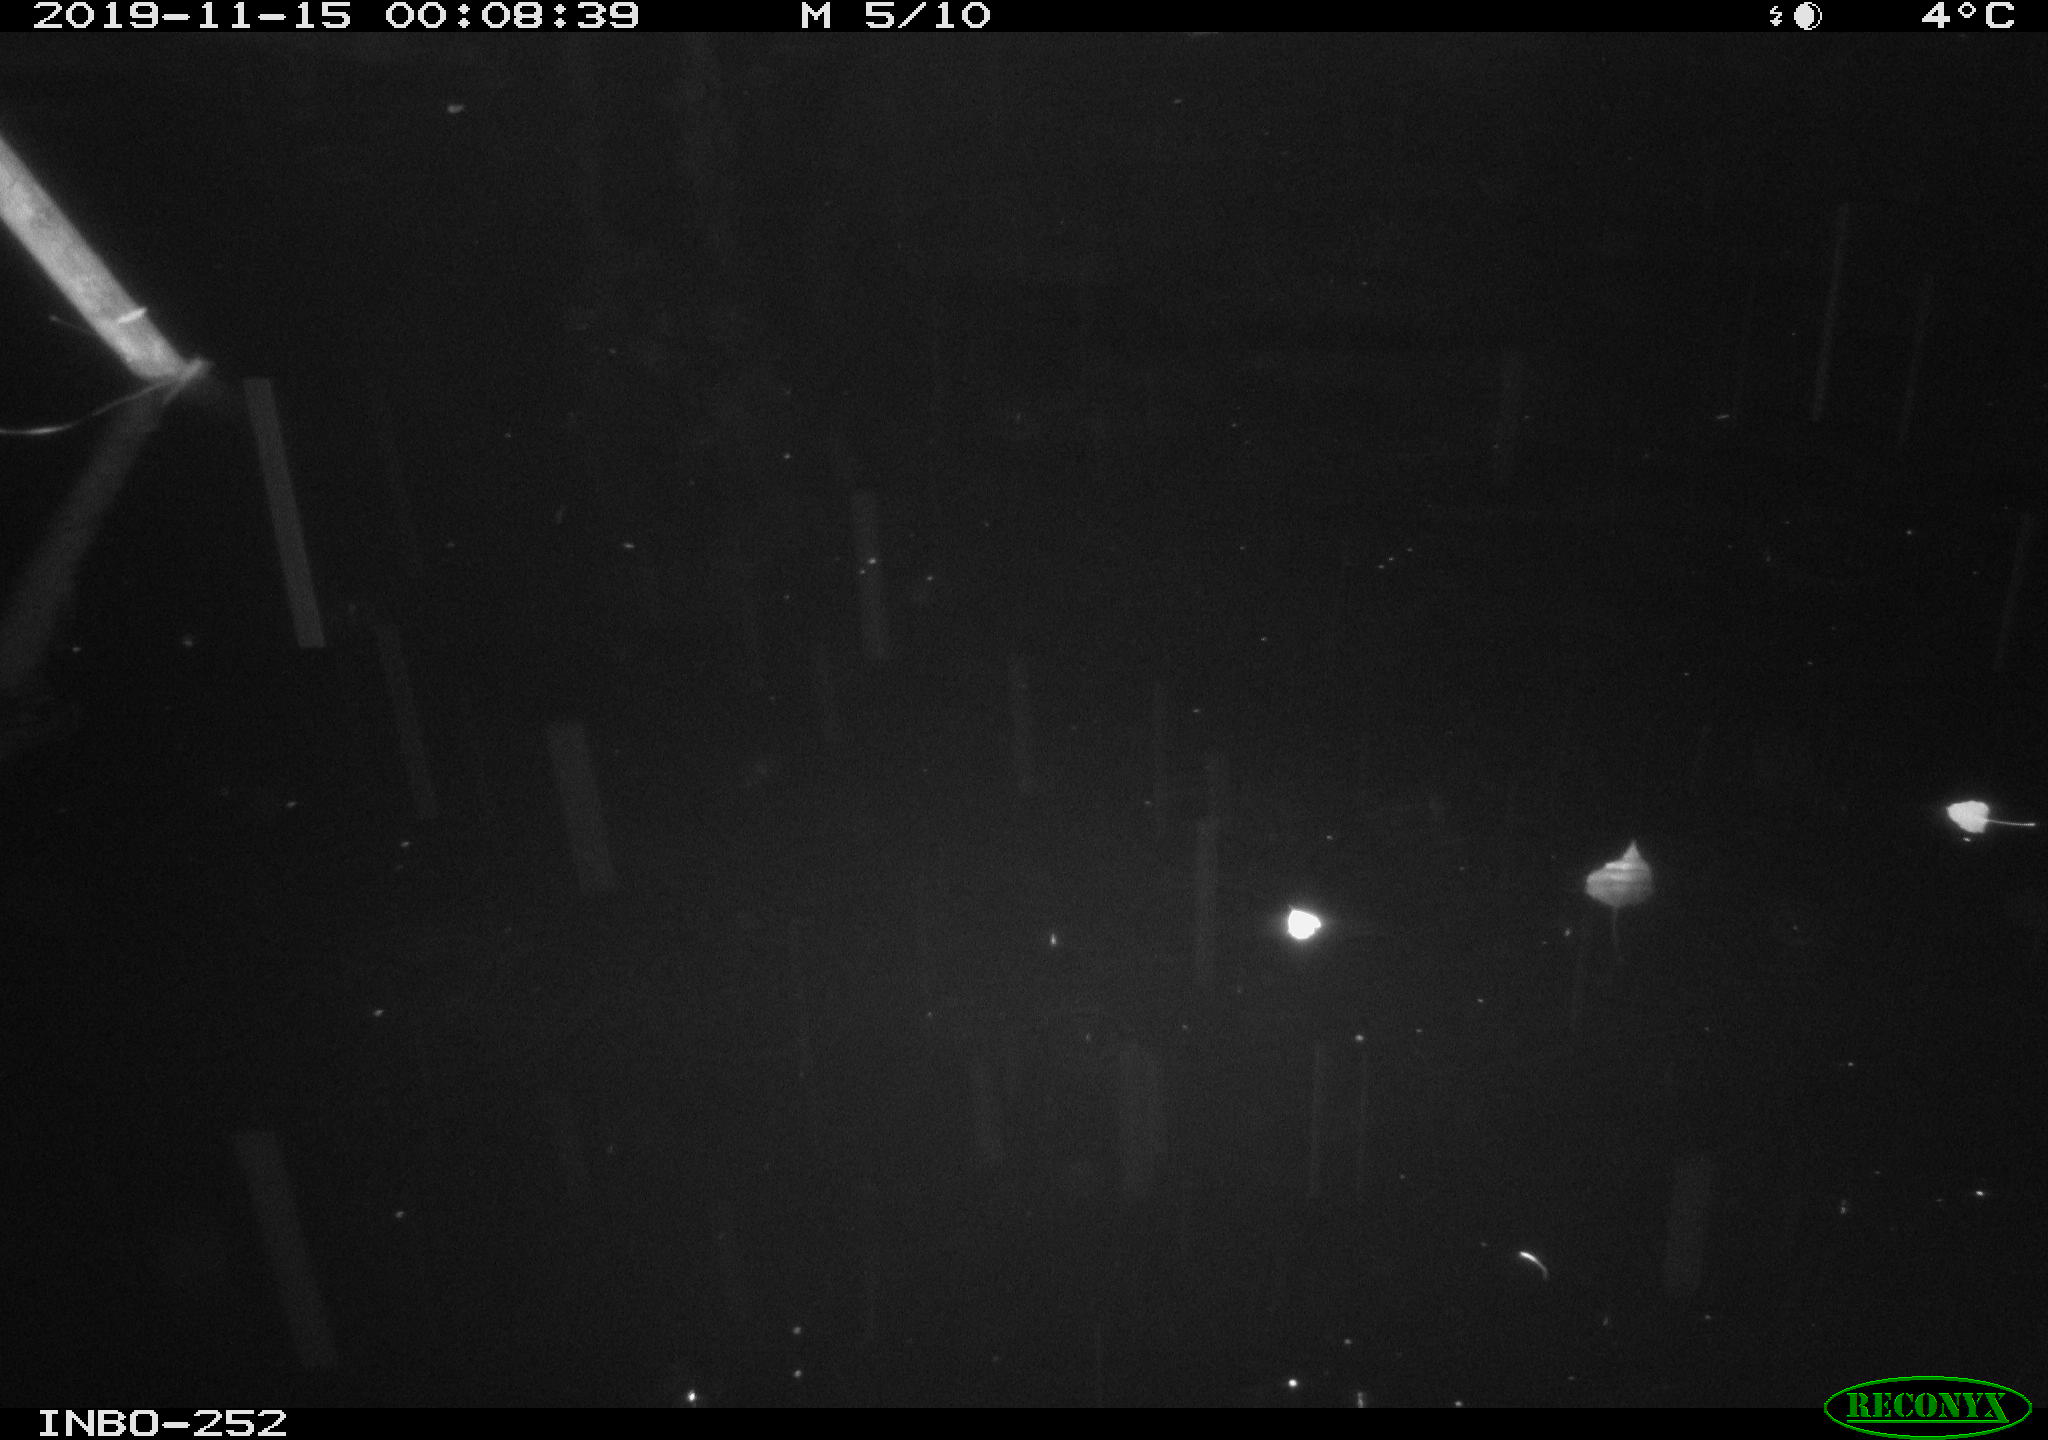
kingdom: Animalia
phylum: Chordata
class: Aves
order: Anseriformes
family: Anatidae
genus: Anas
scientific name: Anas platyrhynchos
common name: Mallard
